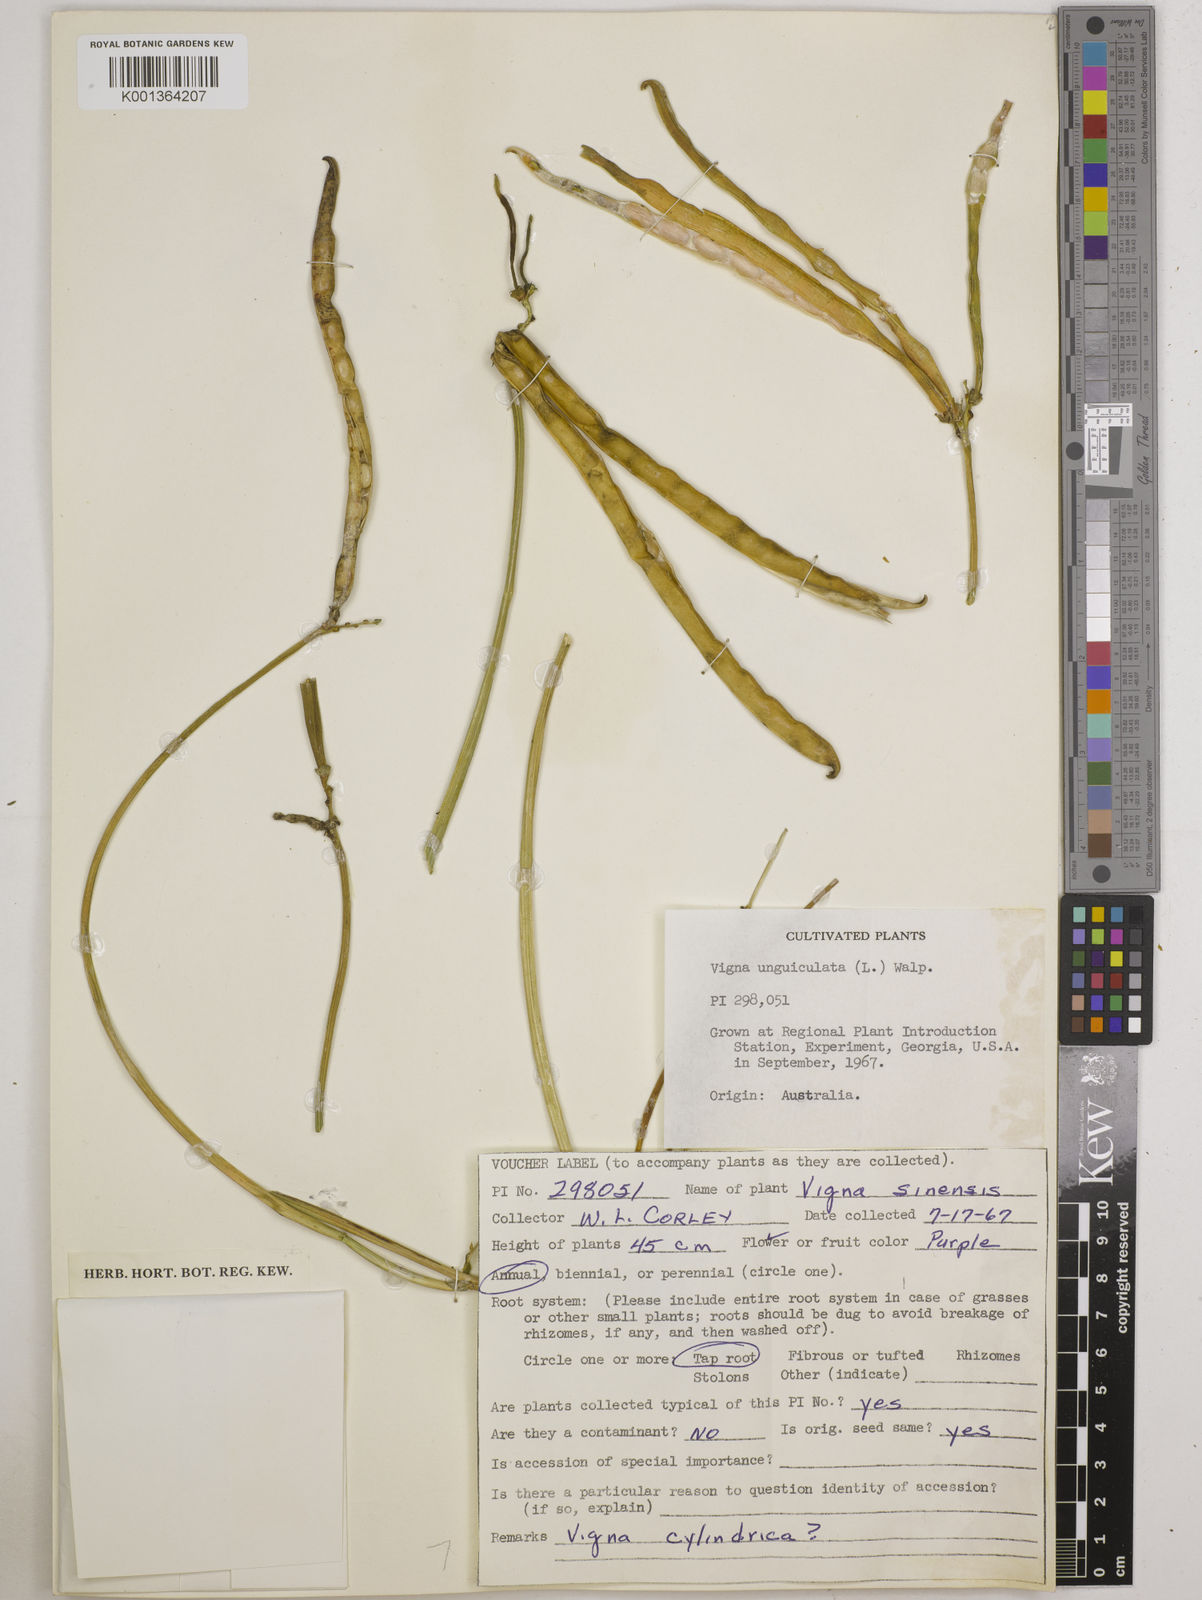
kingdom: Plantae
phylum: Tracheophyta
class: Magnoliopsida
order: Fabales
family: Fabaceae
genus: Vigna
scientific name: Vigna
